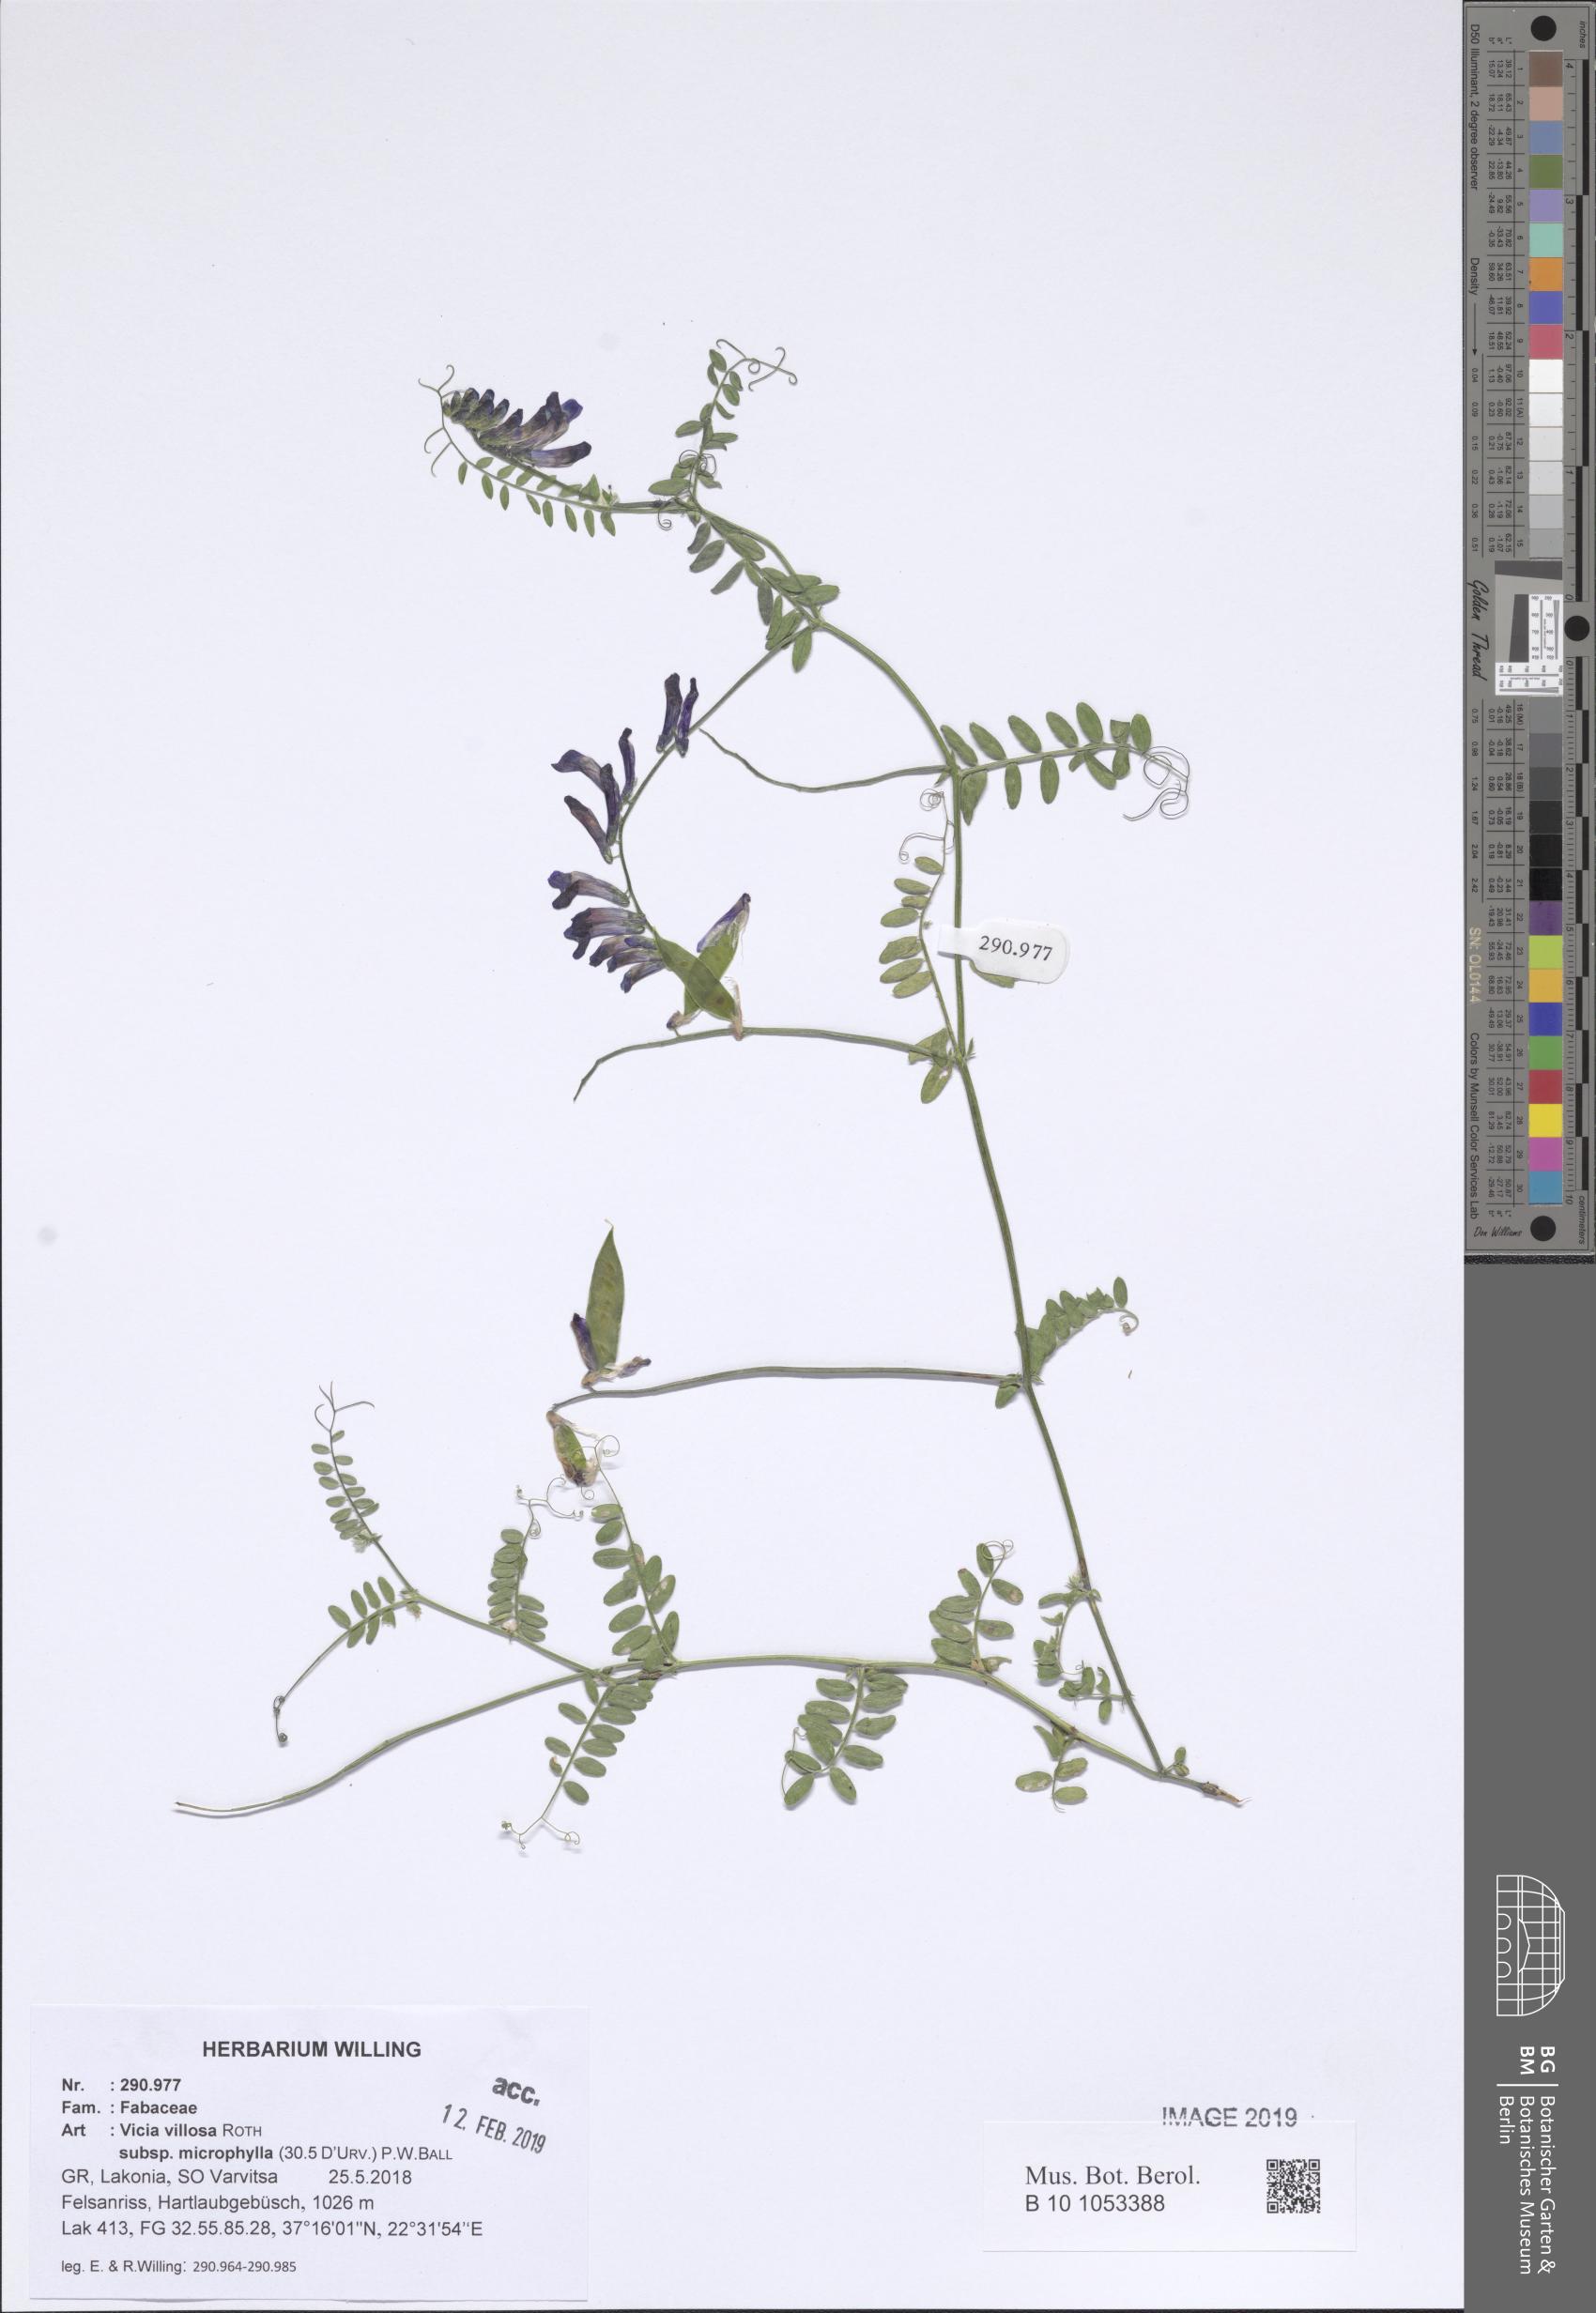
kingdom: Plantae
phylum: Tracheophyta
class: Magnoliopsida
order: Fabales
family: Fabaceae
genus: Vicia
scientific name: Vicia villosa
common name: Fodder vetch
